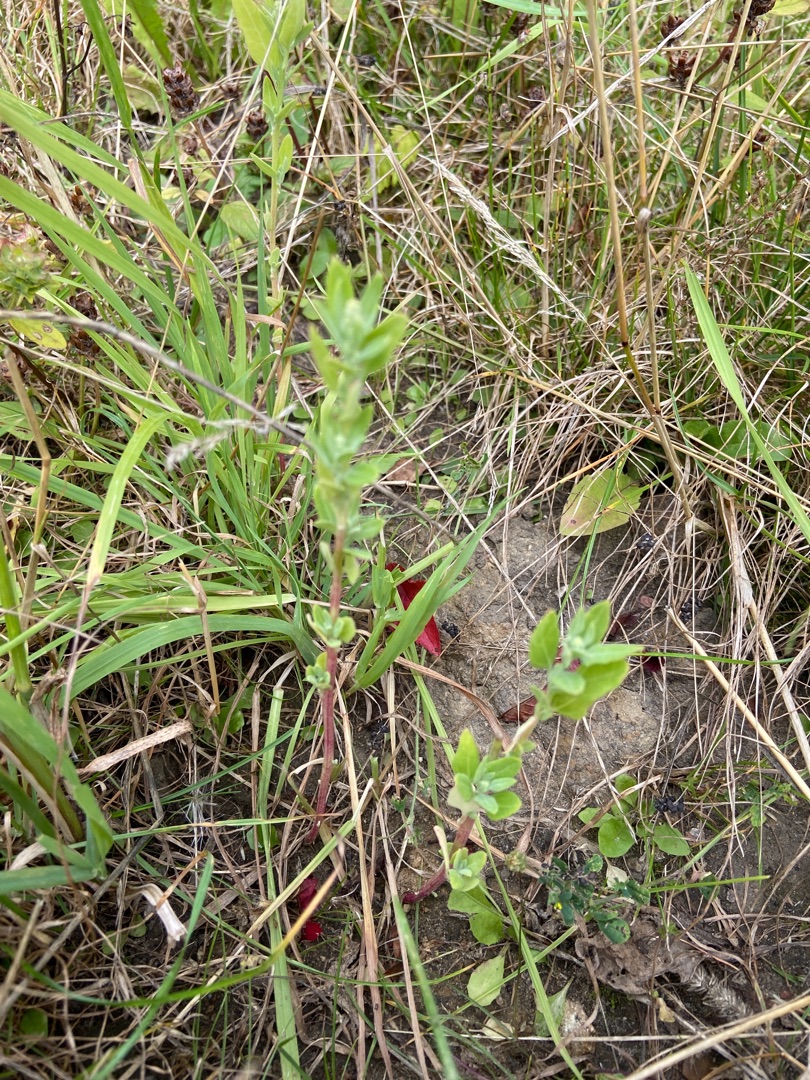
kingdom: Plantae
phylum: Tracheophyta
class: Magnoliopsida
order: Caryophyllales
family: Amaranthaceae
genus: Chenopodium
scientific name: Chenopodium album
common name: Hvidmelet gåsefod
